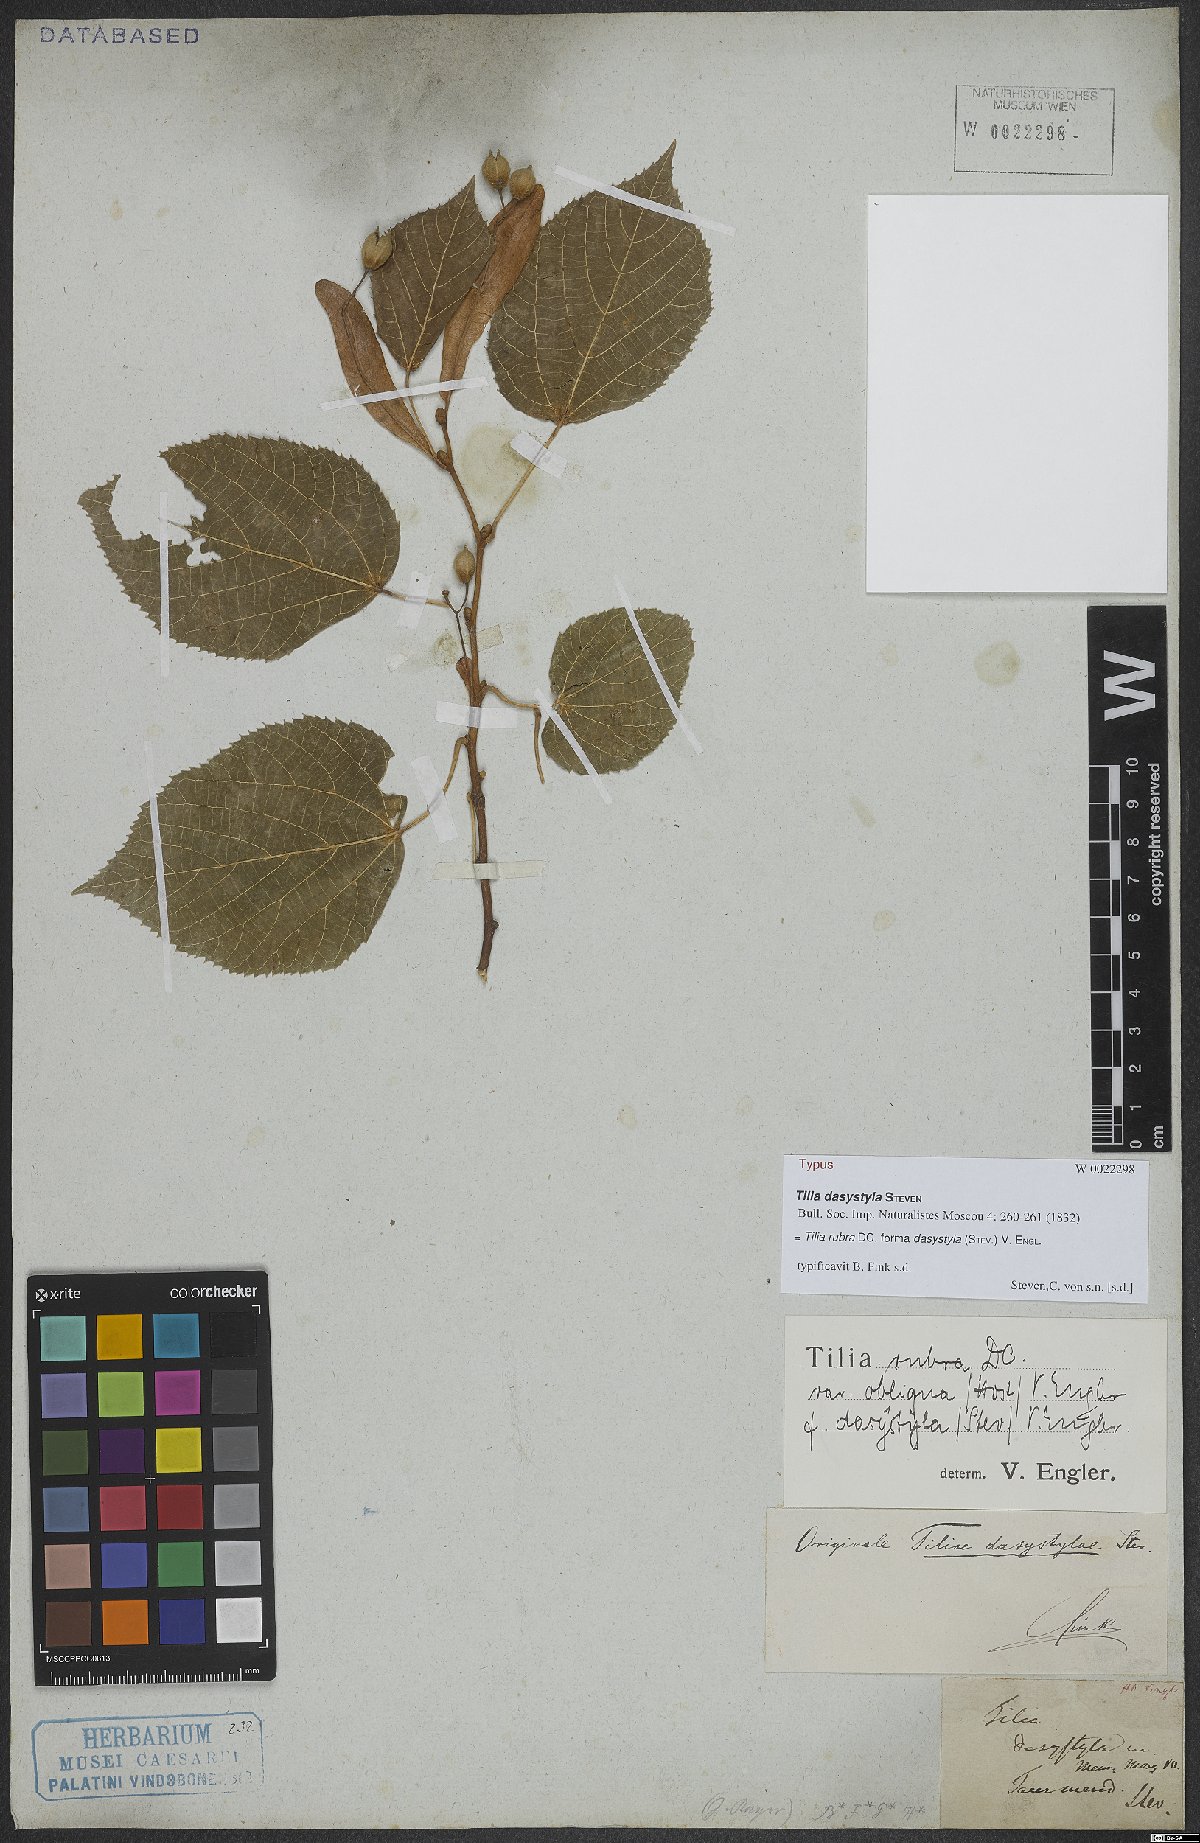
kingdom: Plantae
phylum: Tracheophyta
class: Magnoliopsida
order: Malvales
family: Malvaceae
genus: Tilia
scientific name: Tilia dasystyla
